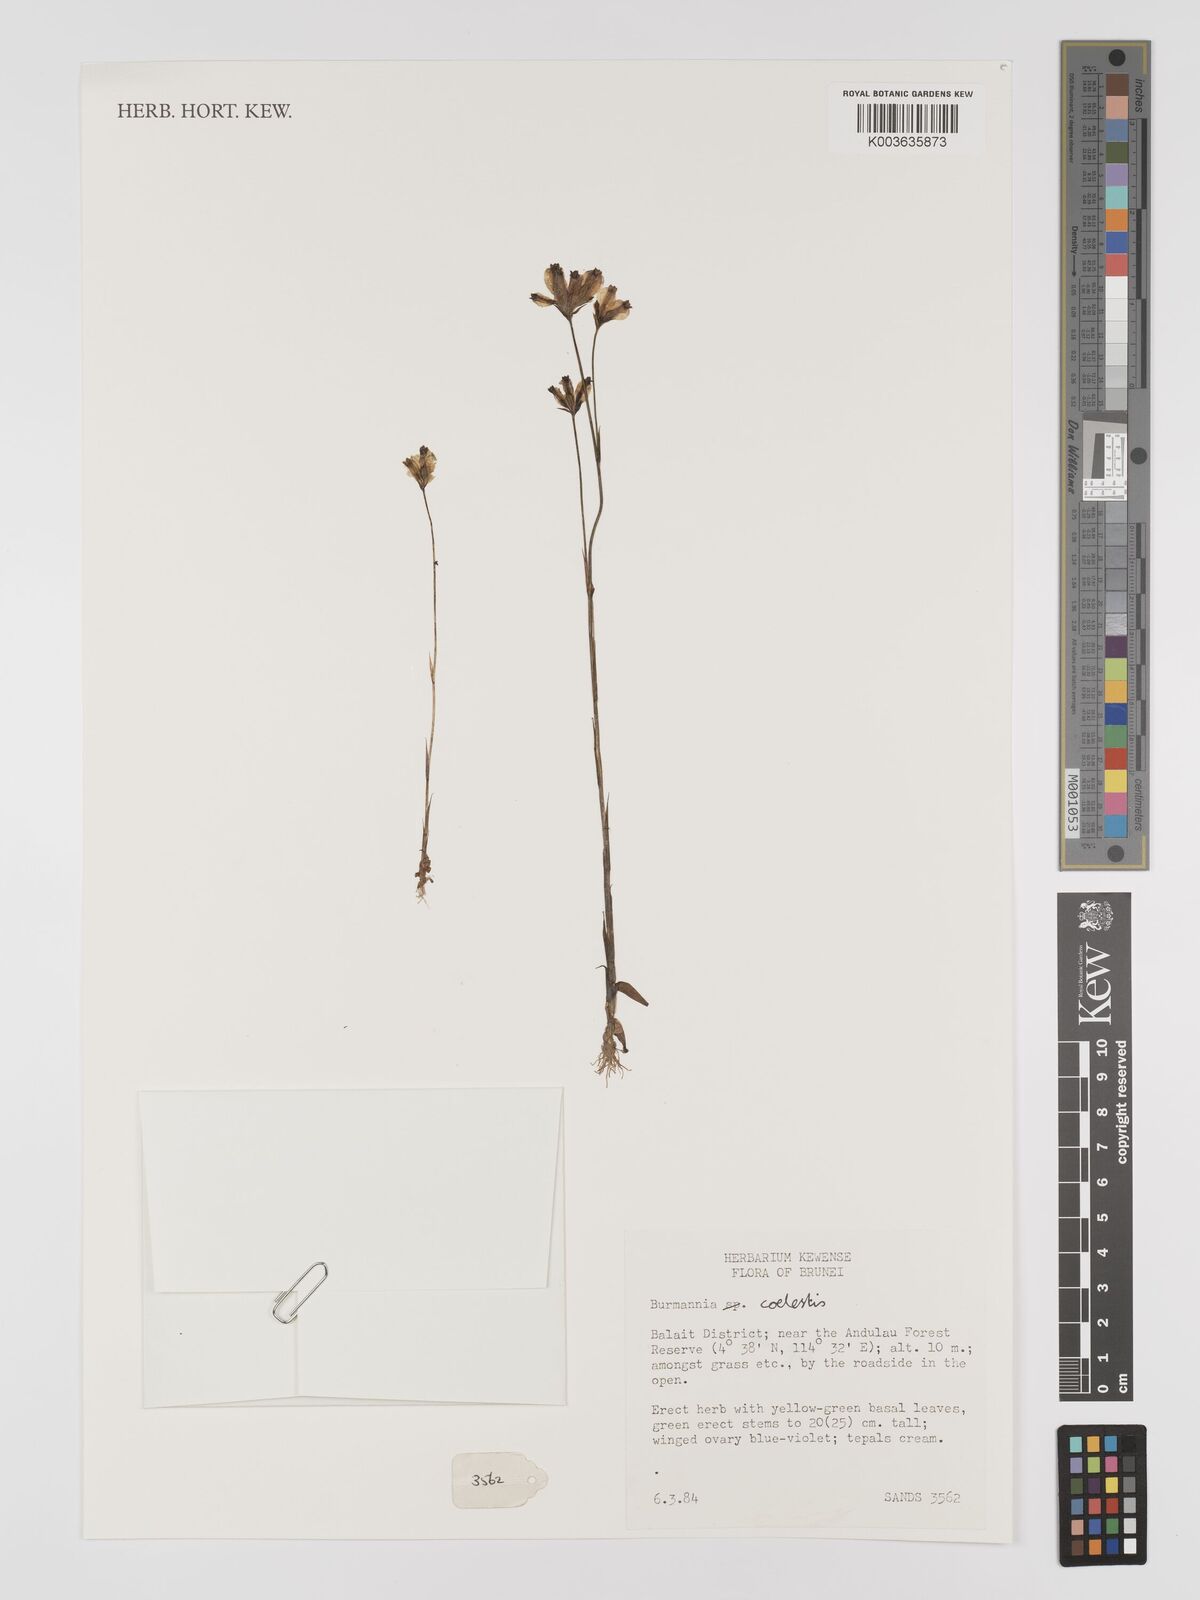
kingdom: Plantae
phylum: Tracheophyta
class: Liliopsida
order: Dioscoreales
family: Burmanniaceae
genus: Burmannia
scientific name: Burmannia coelestis
